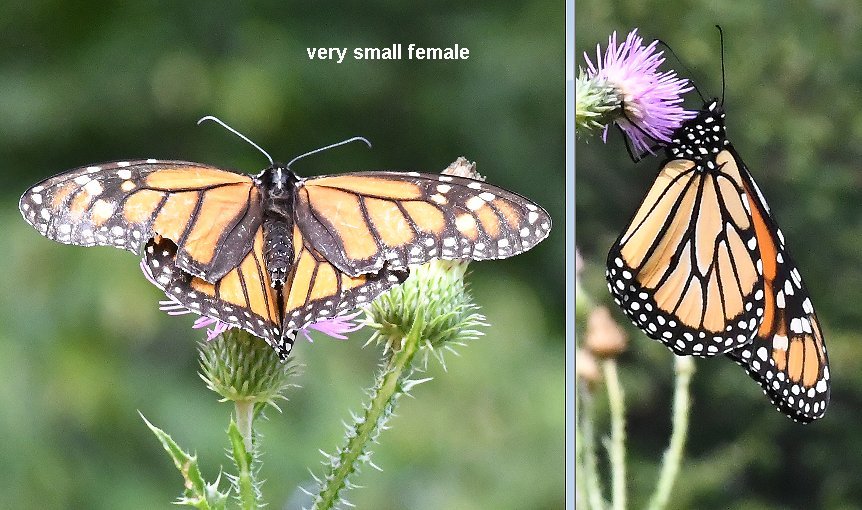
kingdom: Animalia
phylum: Arthropoda
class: Insecta
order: Lepidoptera
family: Nymphalidae
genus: Danaus
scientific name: Danaus plexippus
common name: Monarch
